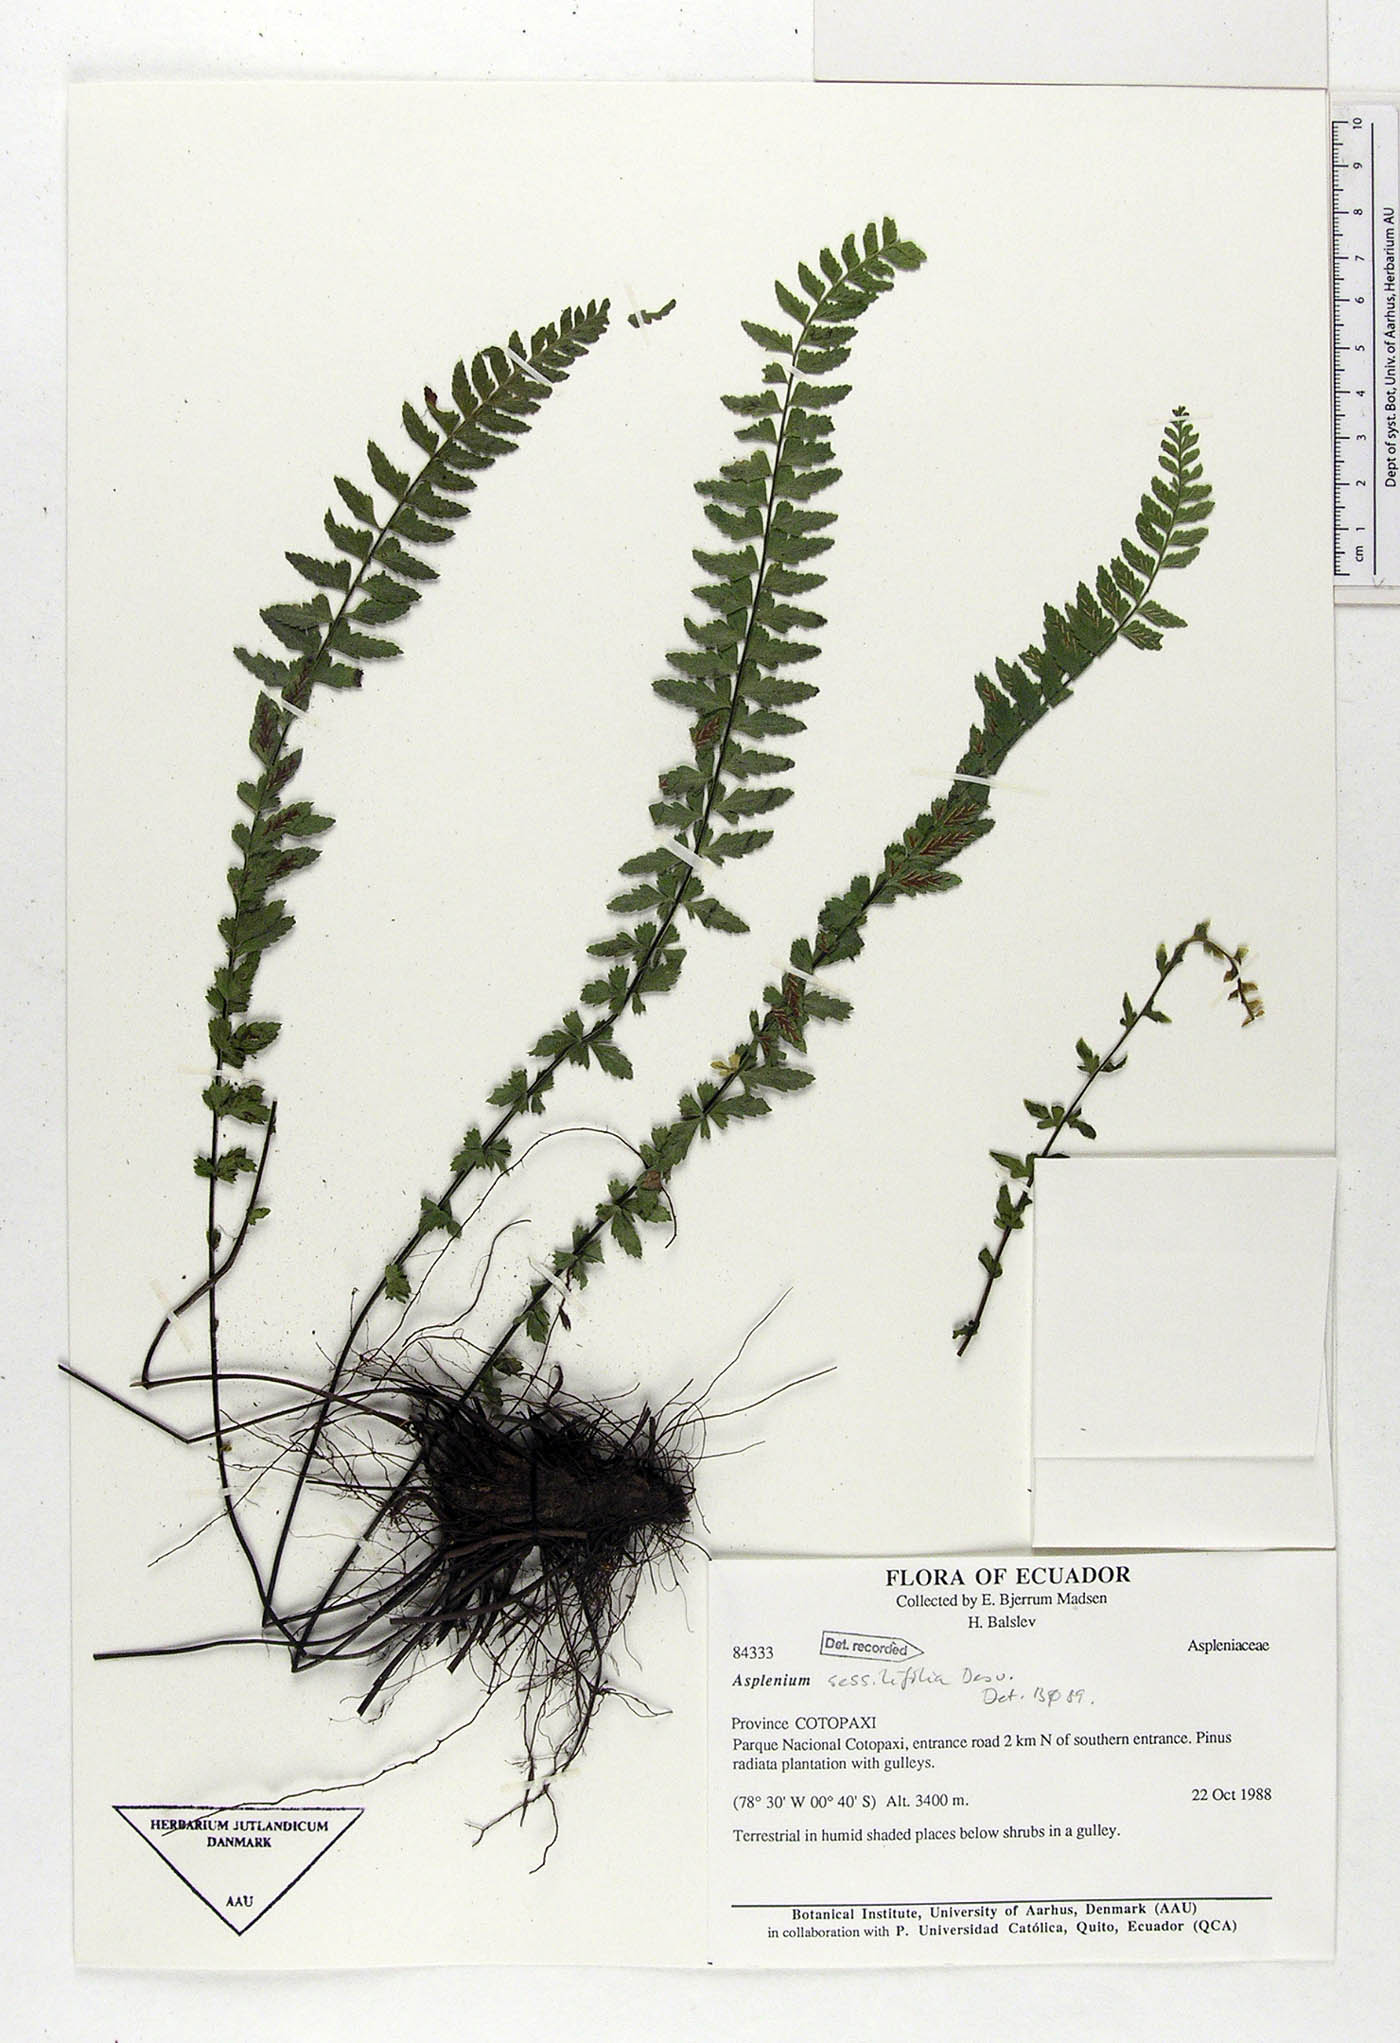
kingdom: Plantae
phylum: Tracheophyta
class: Polypodiopsida
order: Polypodiales
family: Aspleniaceae
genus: Asplenium
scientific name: Asplenium sessilifolium
